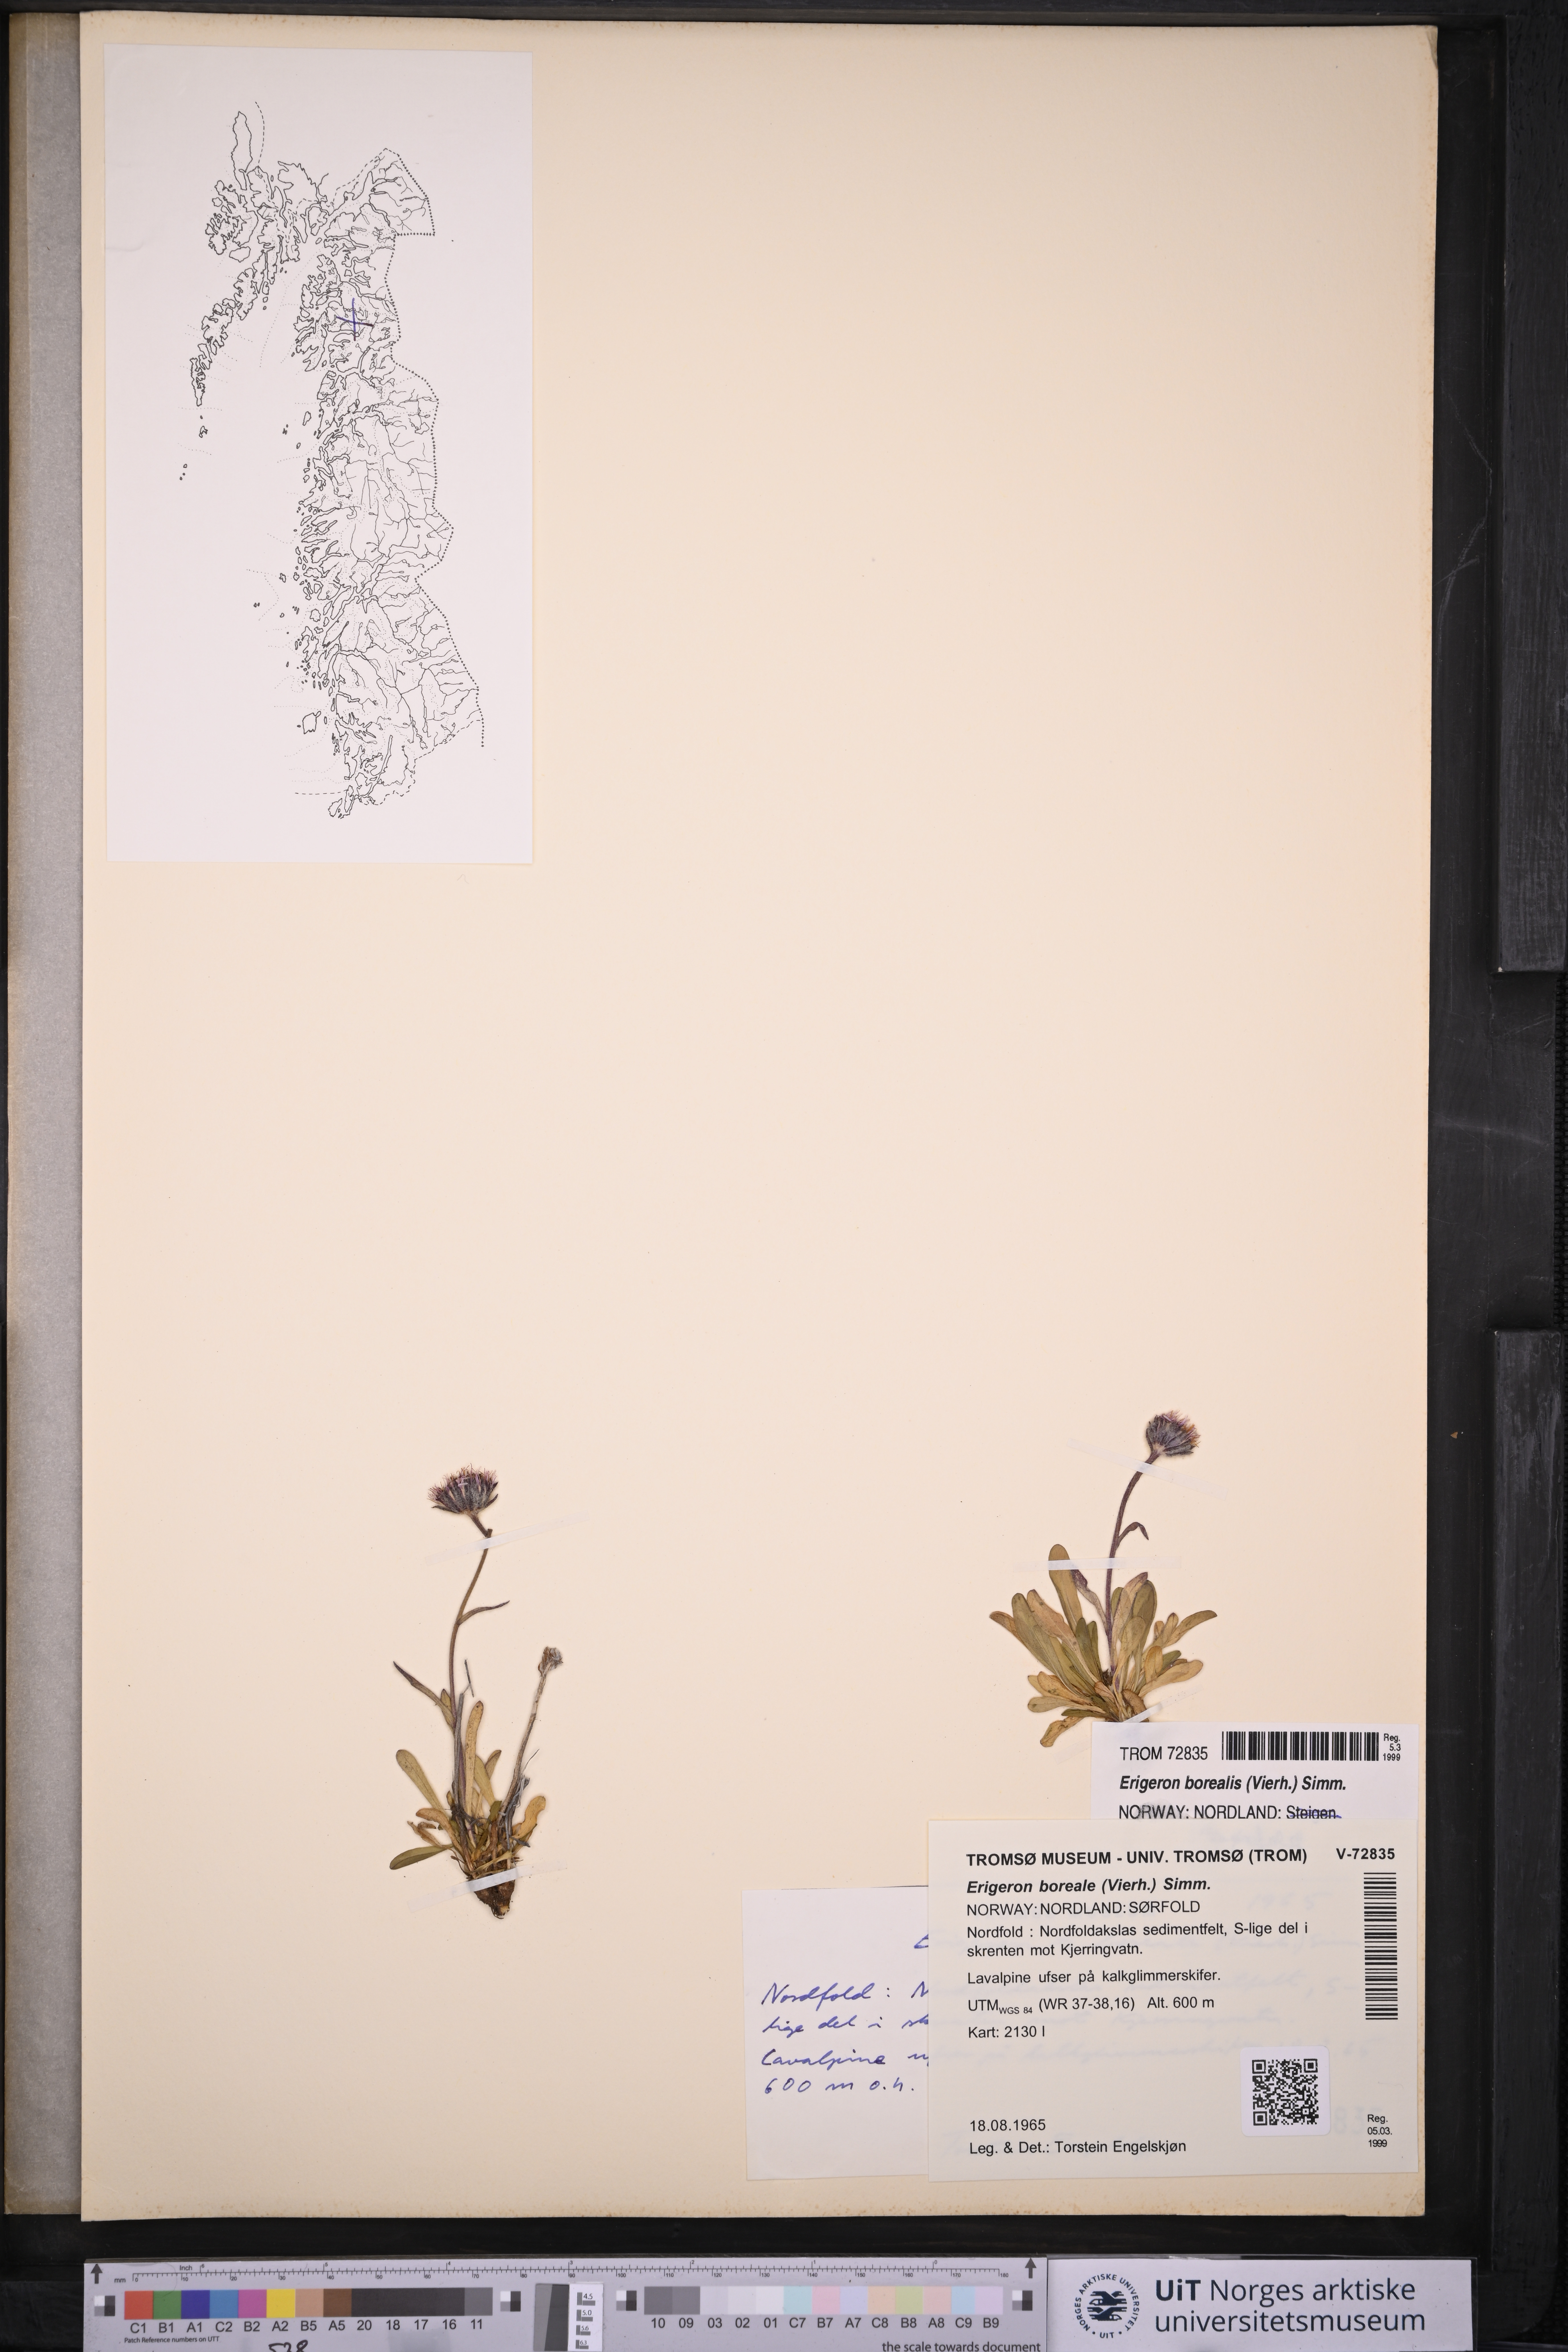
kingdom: Plantae
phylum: Tracheophyta
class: Magnoliopsida
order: Asterales
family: Asteraceae
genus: Erigeron
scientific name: Erigeron borealis
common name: Alpine fleabane
